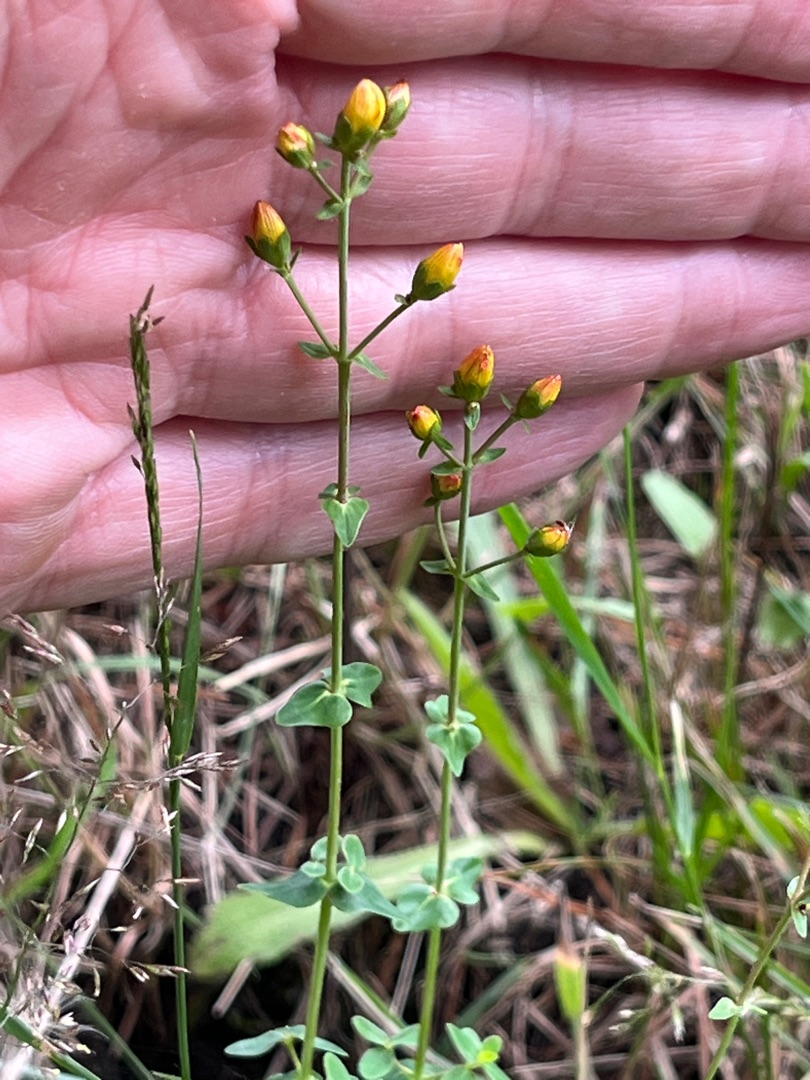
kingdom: Plantae
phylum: Tracheophyta
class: Magnoliopsida
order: Malpighiales
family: Hypericaceae
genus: Hypericum
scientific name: Hypericum pulchrum
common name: Smuk perikon
